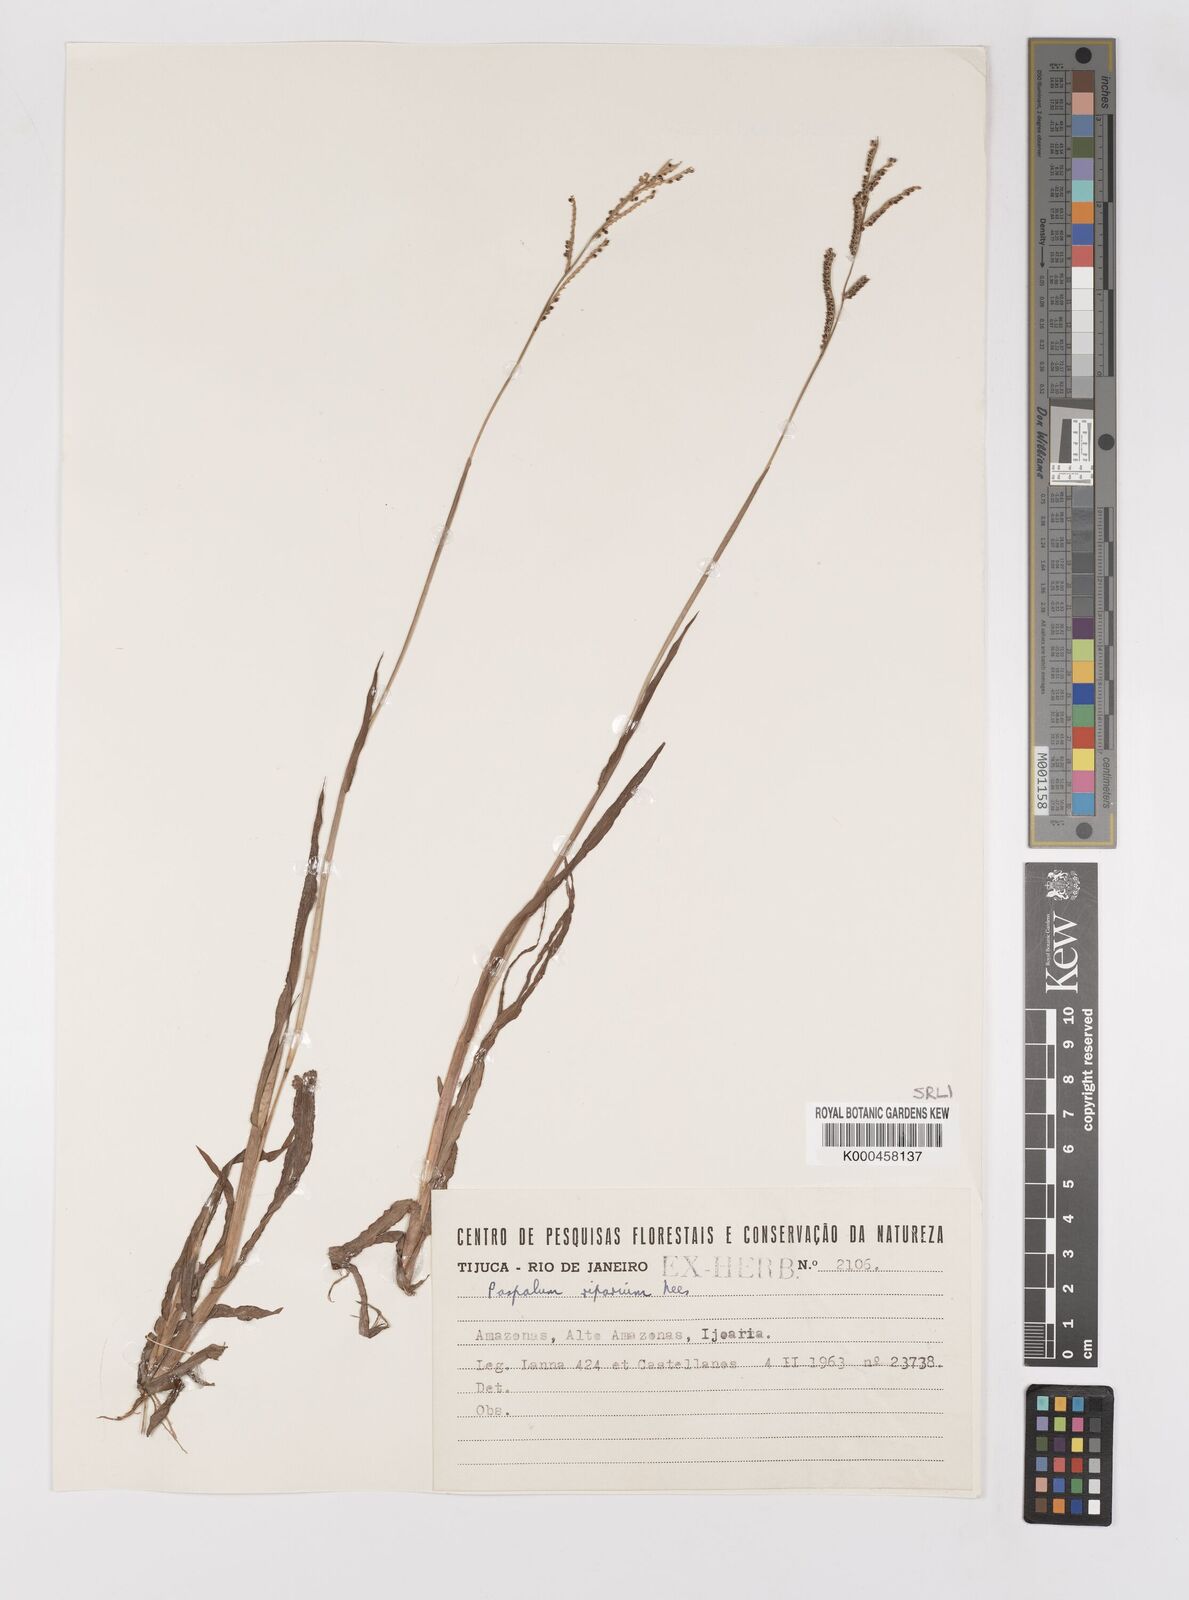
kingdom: Plantae
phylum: Tracheophyta
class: Liliopsida
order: Poales
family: Poaceae
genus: Paspalum
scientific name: Paspalum
